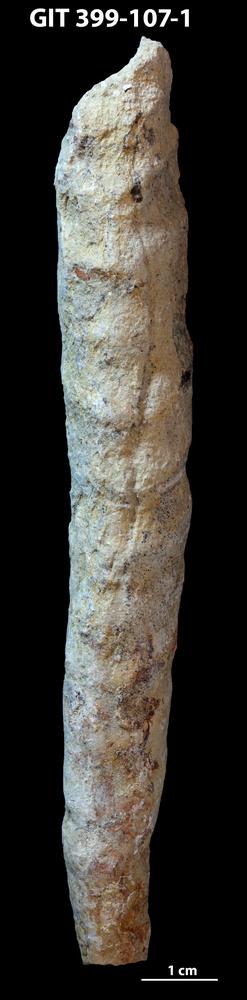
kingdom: Animalia
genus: Palaeophycus
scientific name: Palaeophycus
